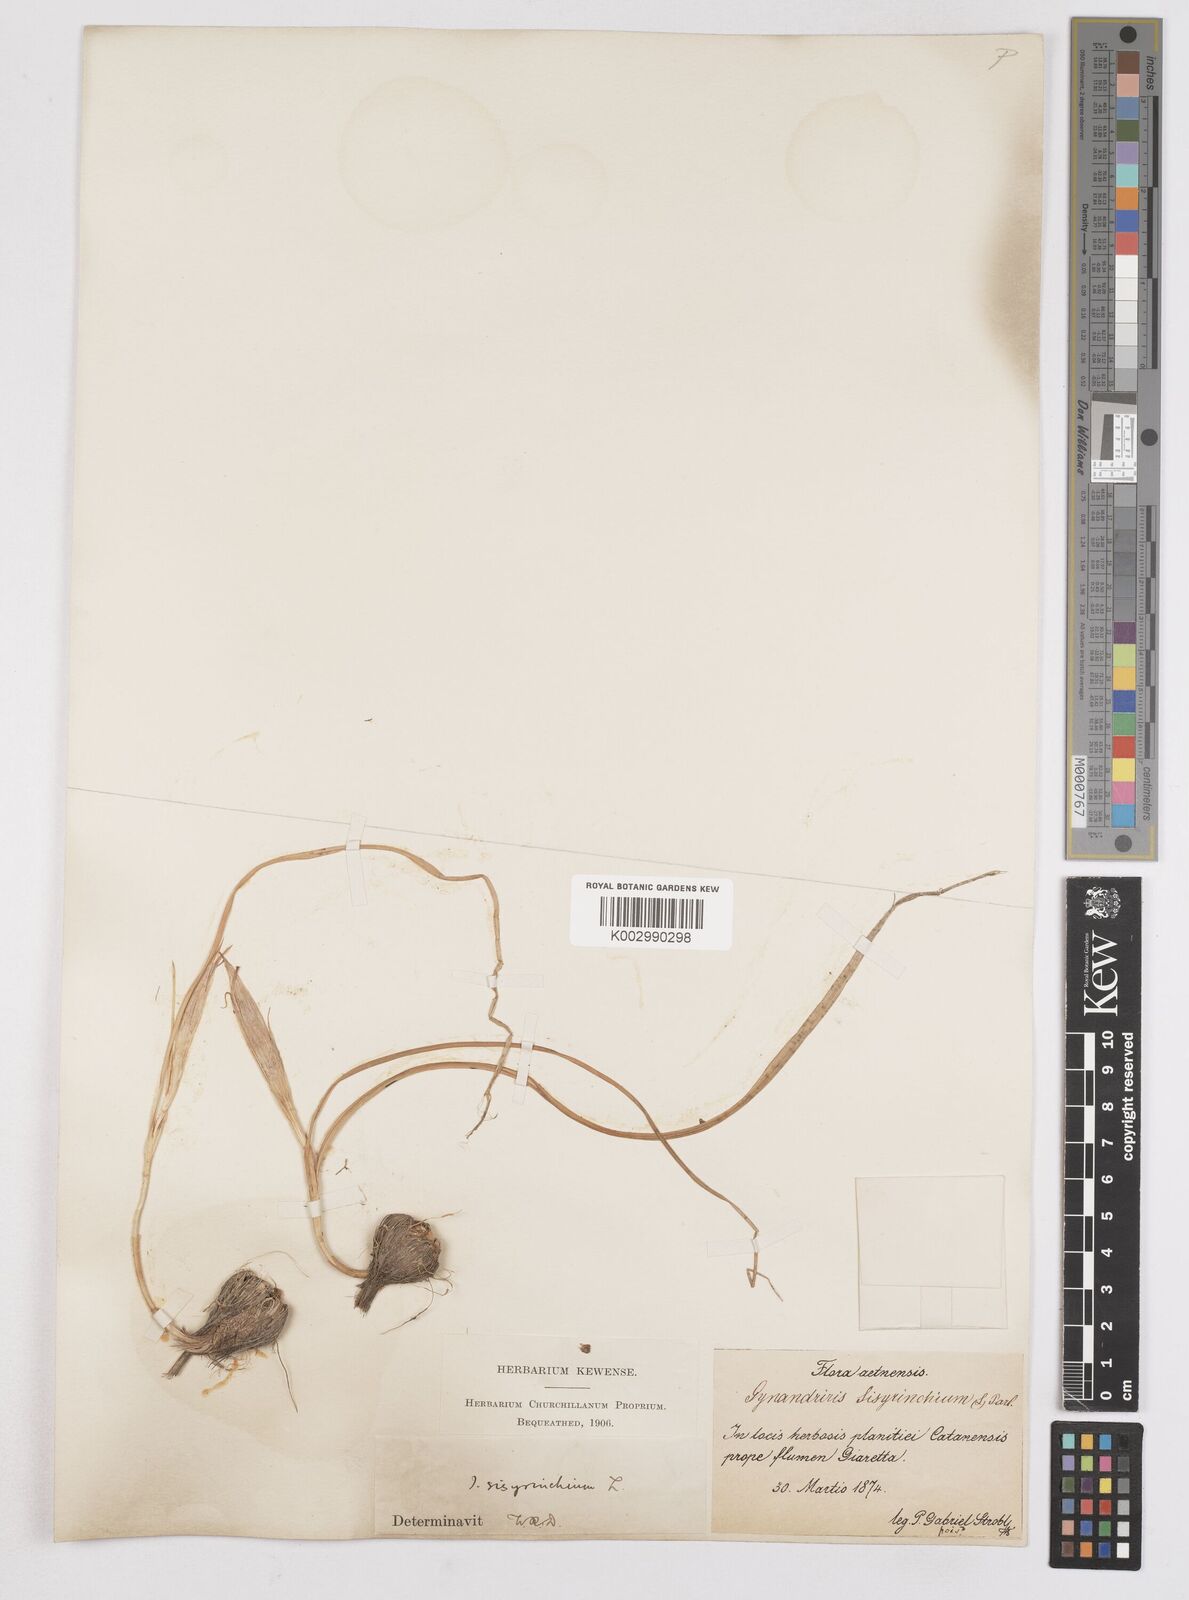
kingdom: Plantae
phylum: Tracheophyta
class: Liliopsida
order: Asparagales
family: Iridaceae
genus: Moraea
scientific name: Moraea sisyrinchium
